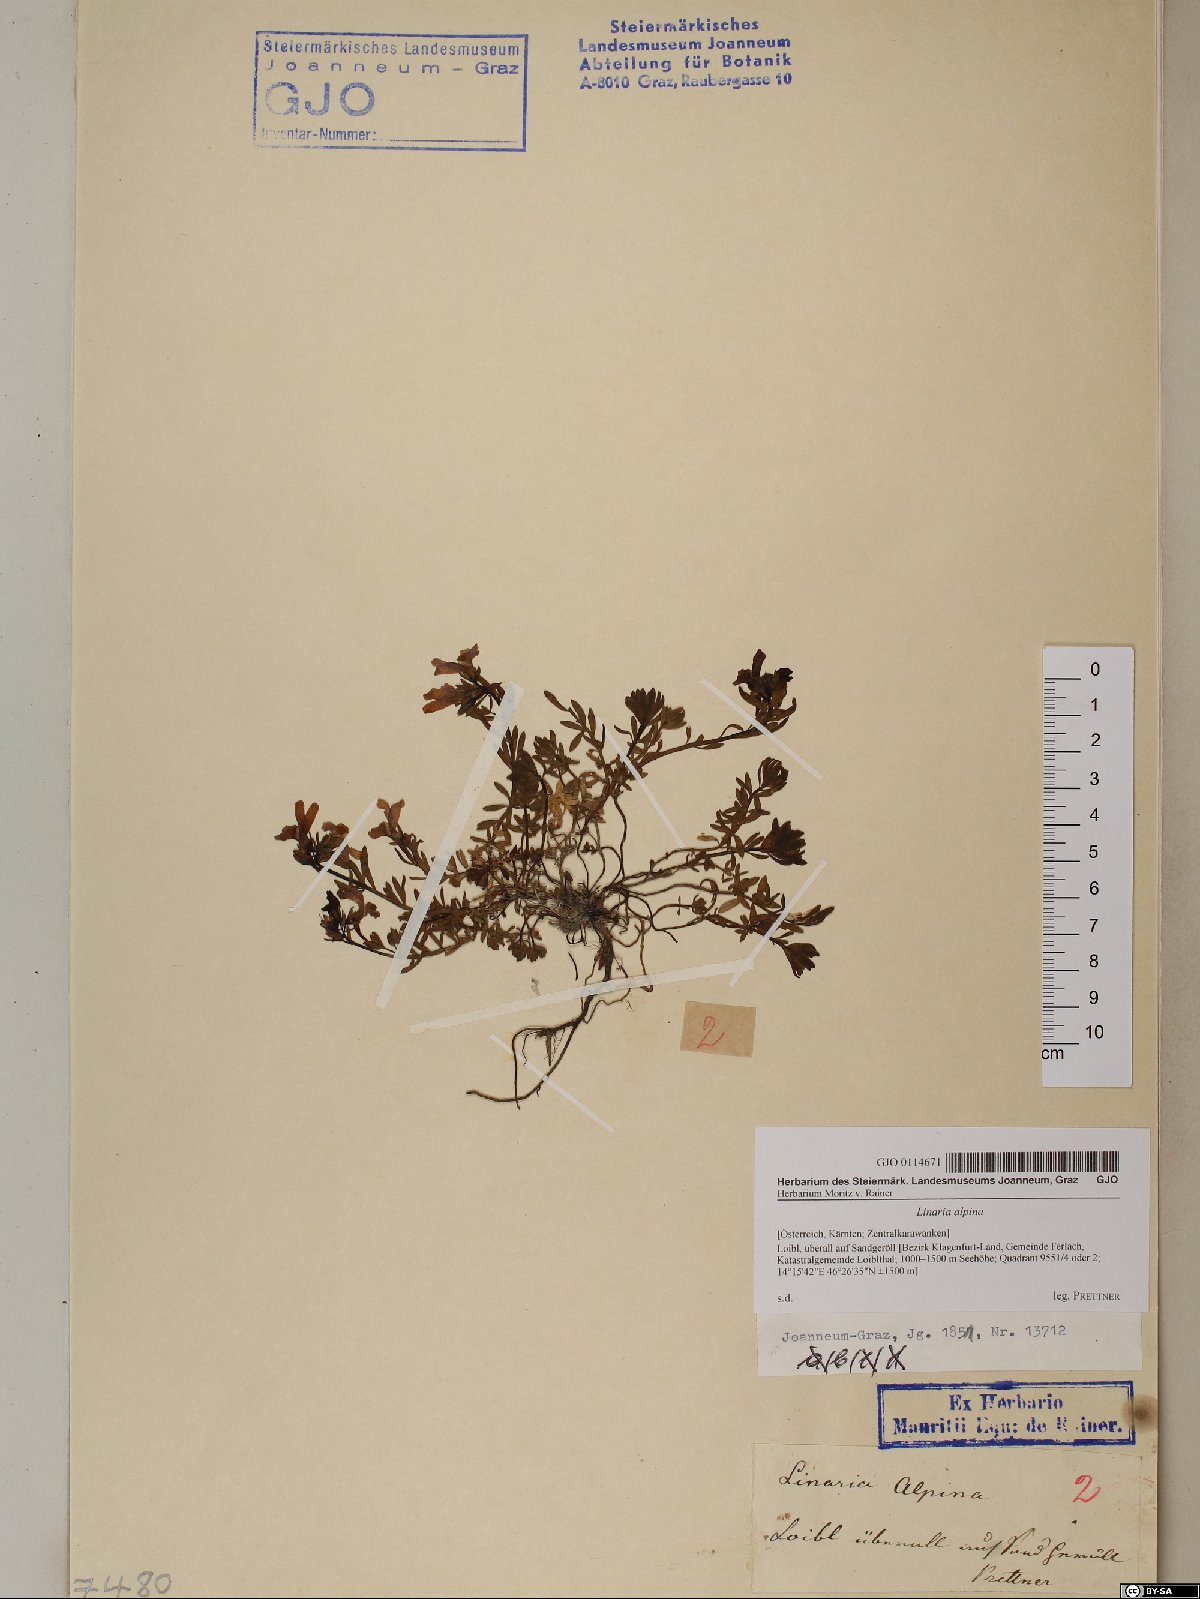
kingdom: Plantae
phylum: Tracheophyta
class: Magnoliopsida
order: Lamiales
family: Plantaginaceae
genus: Linaria
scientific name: Linaria alpina
